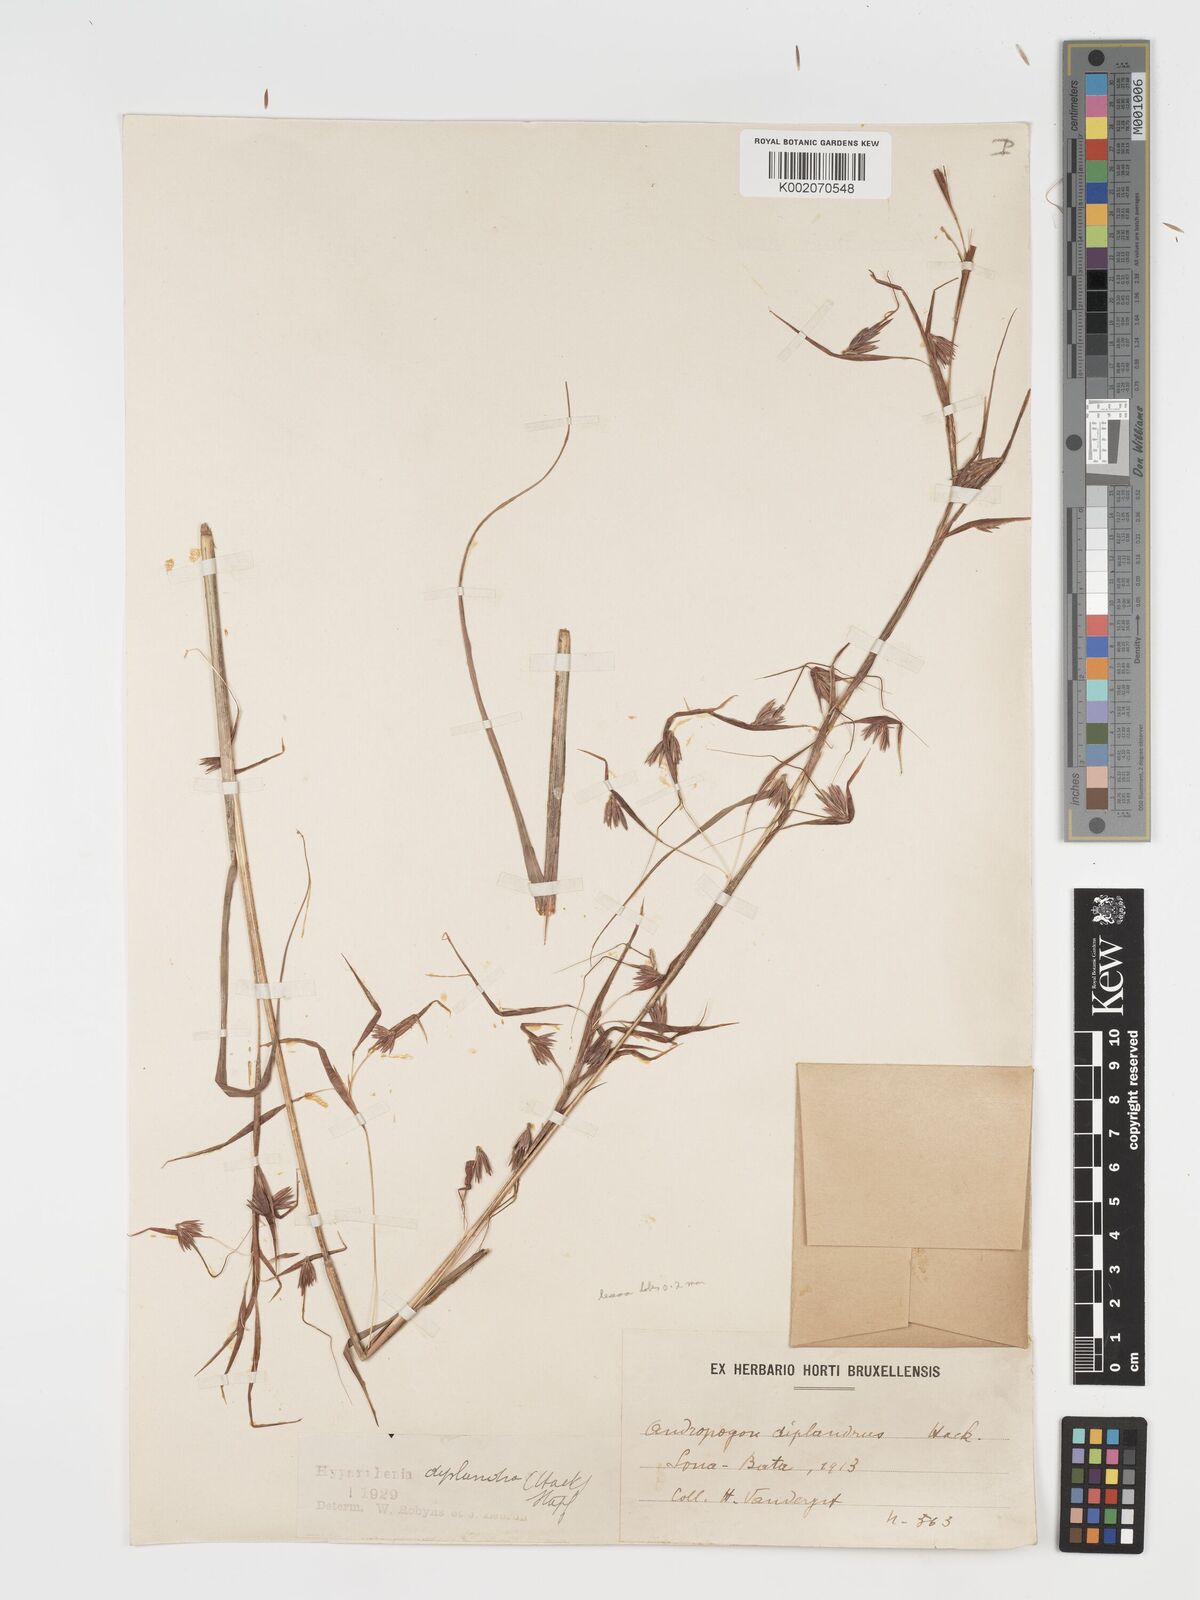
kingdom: Plantae
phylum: Tracheophyta
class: Liliopsida
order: Poales
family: Poaceae
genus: Hyparrhenia
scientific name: Hyparrhenia diplandra
